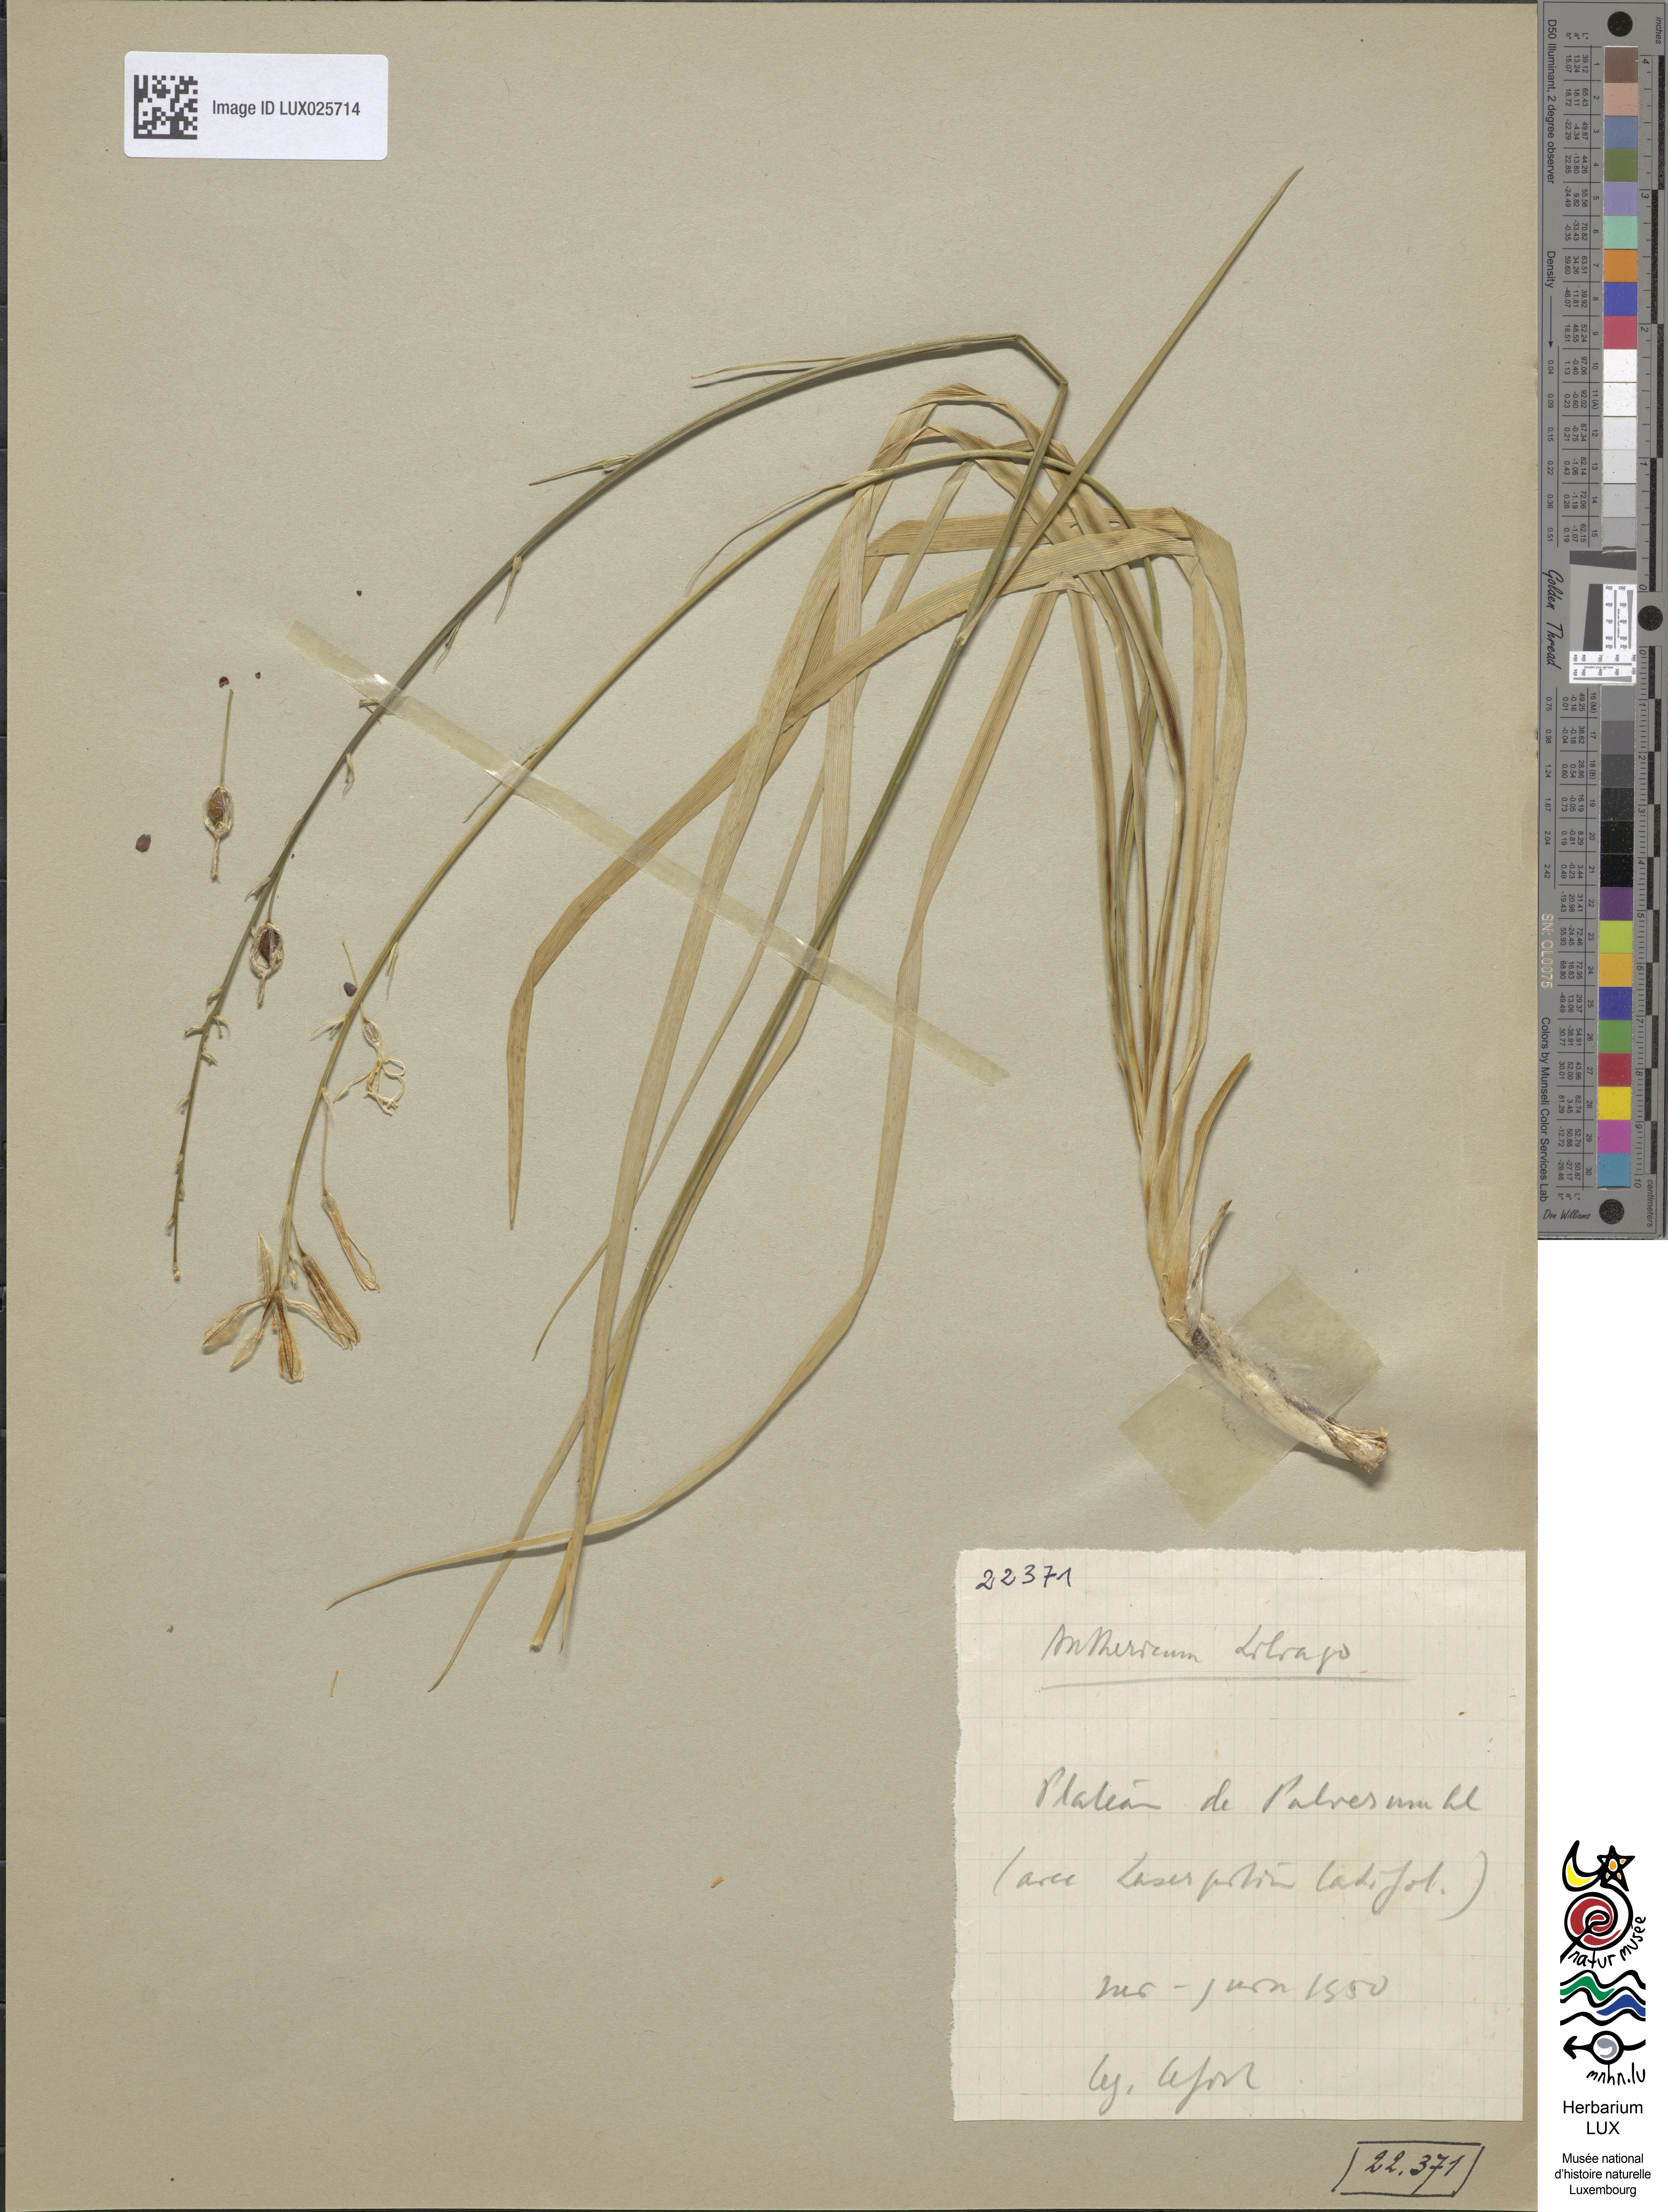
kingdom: Plantae
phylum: Tracheophyta
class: Liliopsida
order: Asparagales
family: Asparagaceae
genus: Anthericum
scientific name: Anthericum liliago
